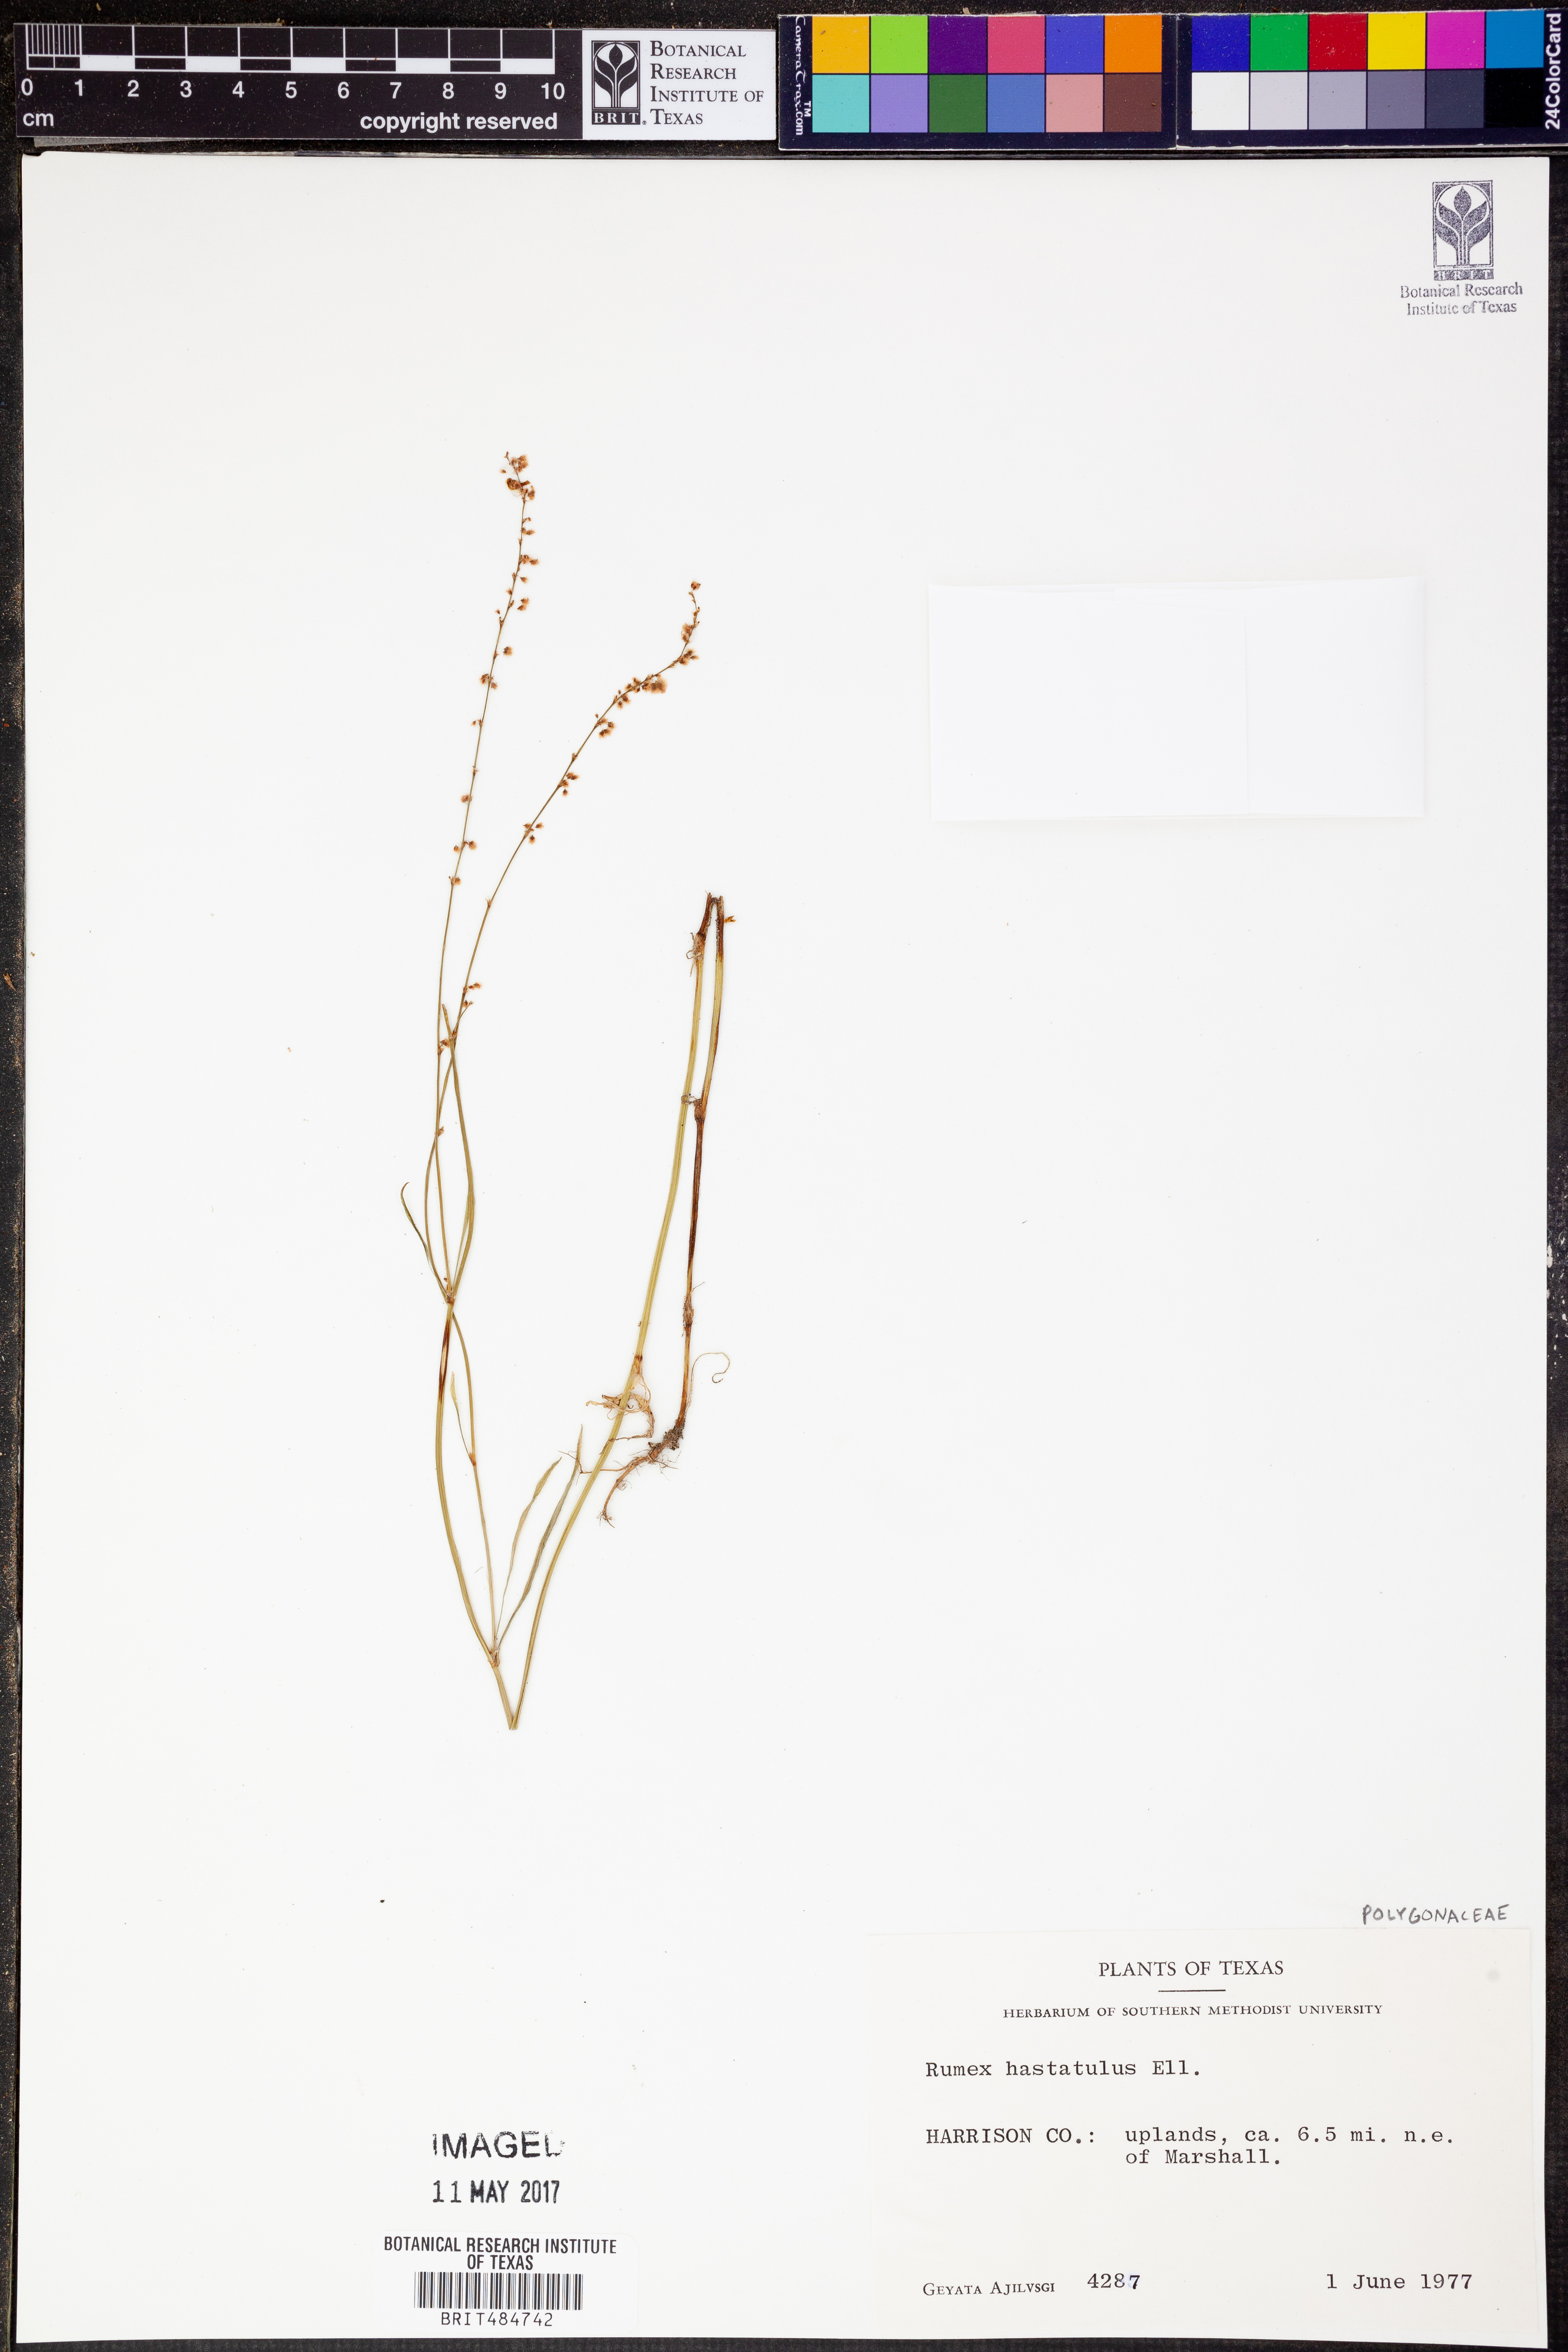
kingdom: Plantae
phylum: Tracheophyta
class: Magnoliopsida
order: Caryophyllales
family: Polygonaceae
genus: Rumex
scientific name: Rumex hastatulus
